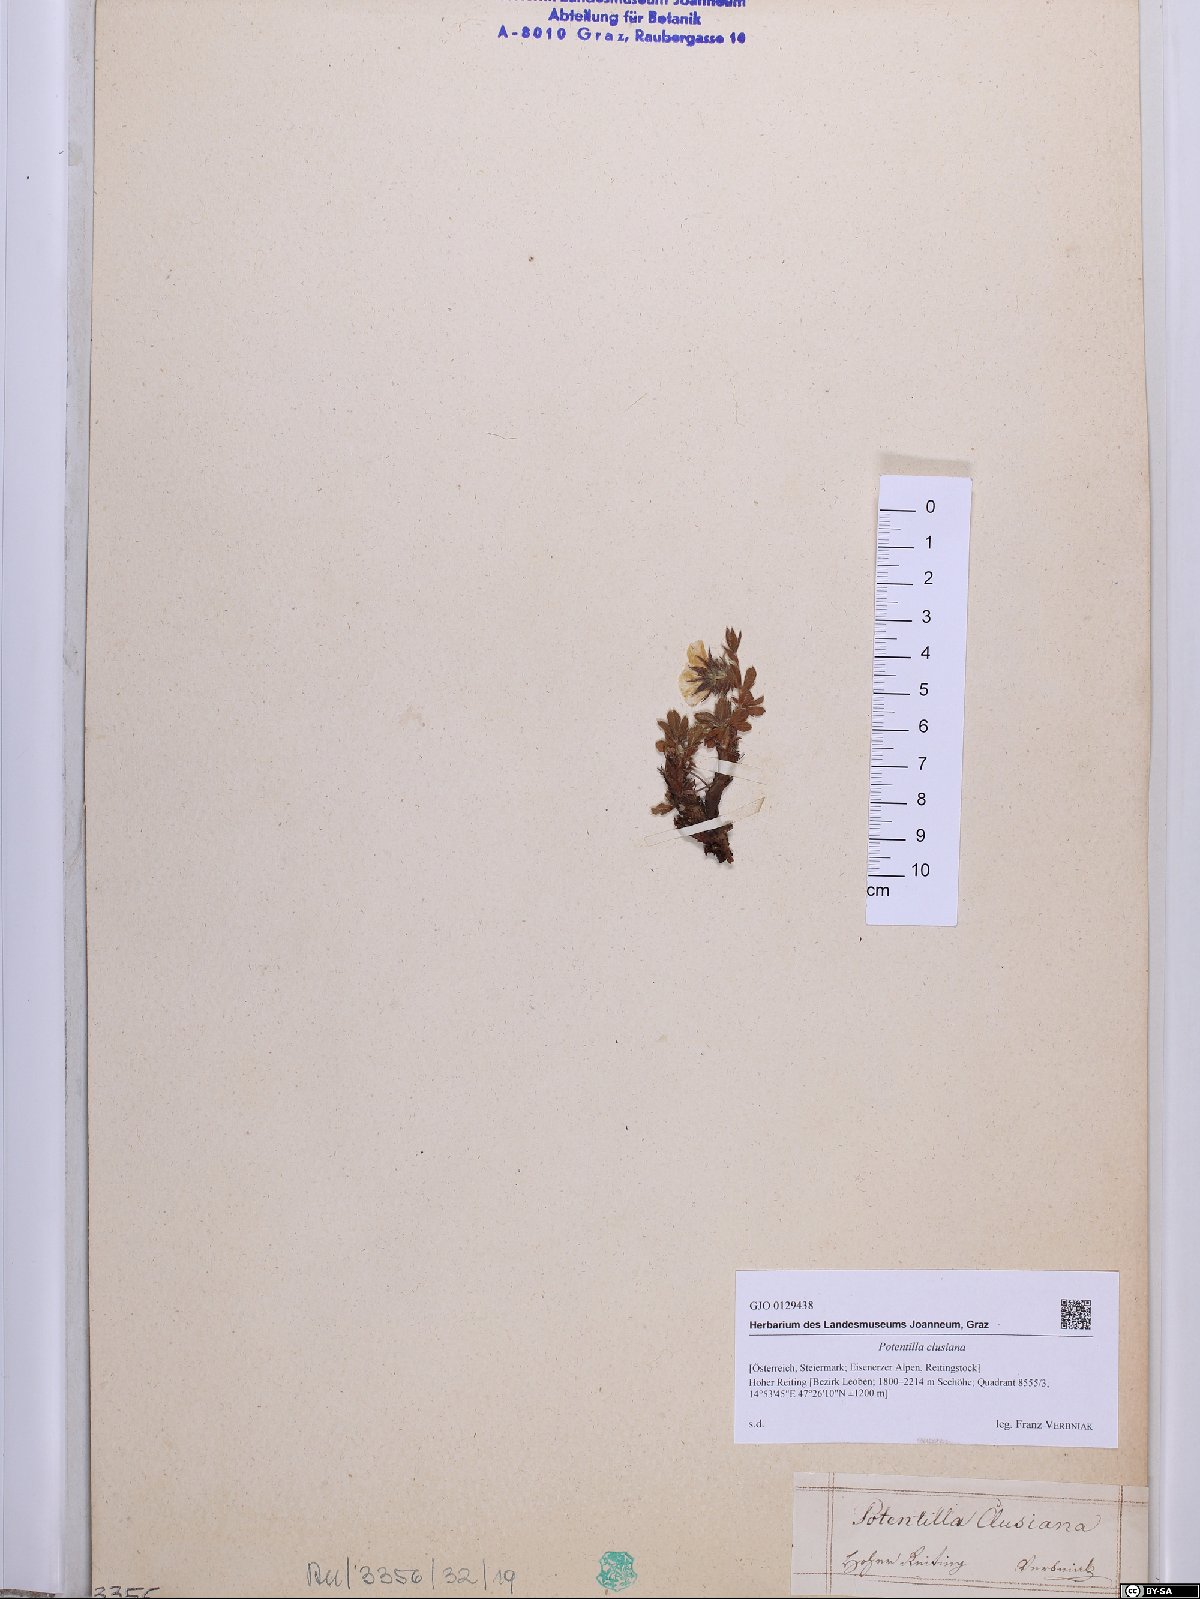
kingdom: Plantae
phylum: Tracheophyta
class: Magnoliopsida
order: Rosales
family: Rosaceae
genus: Potentilla
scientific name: Potentilla clusiana
